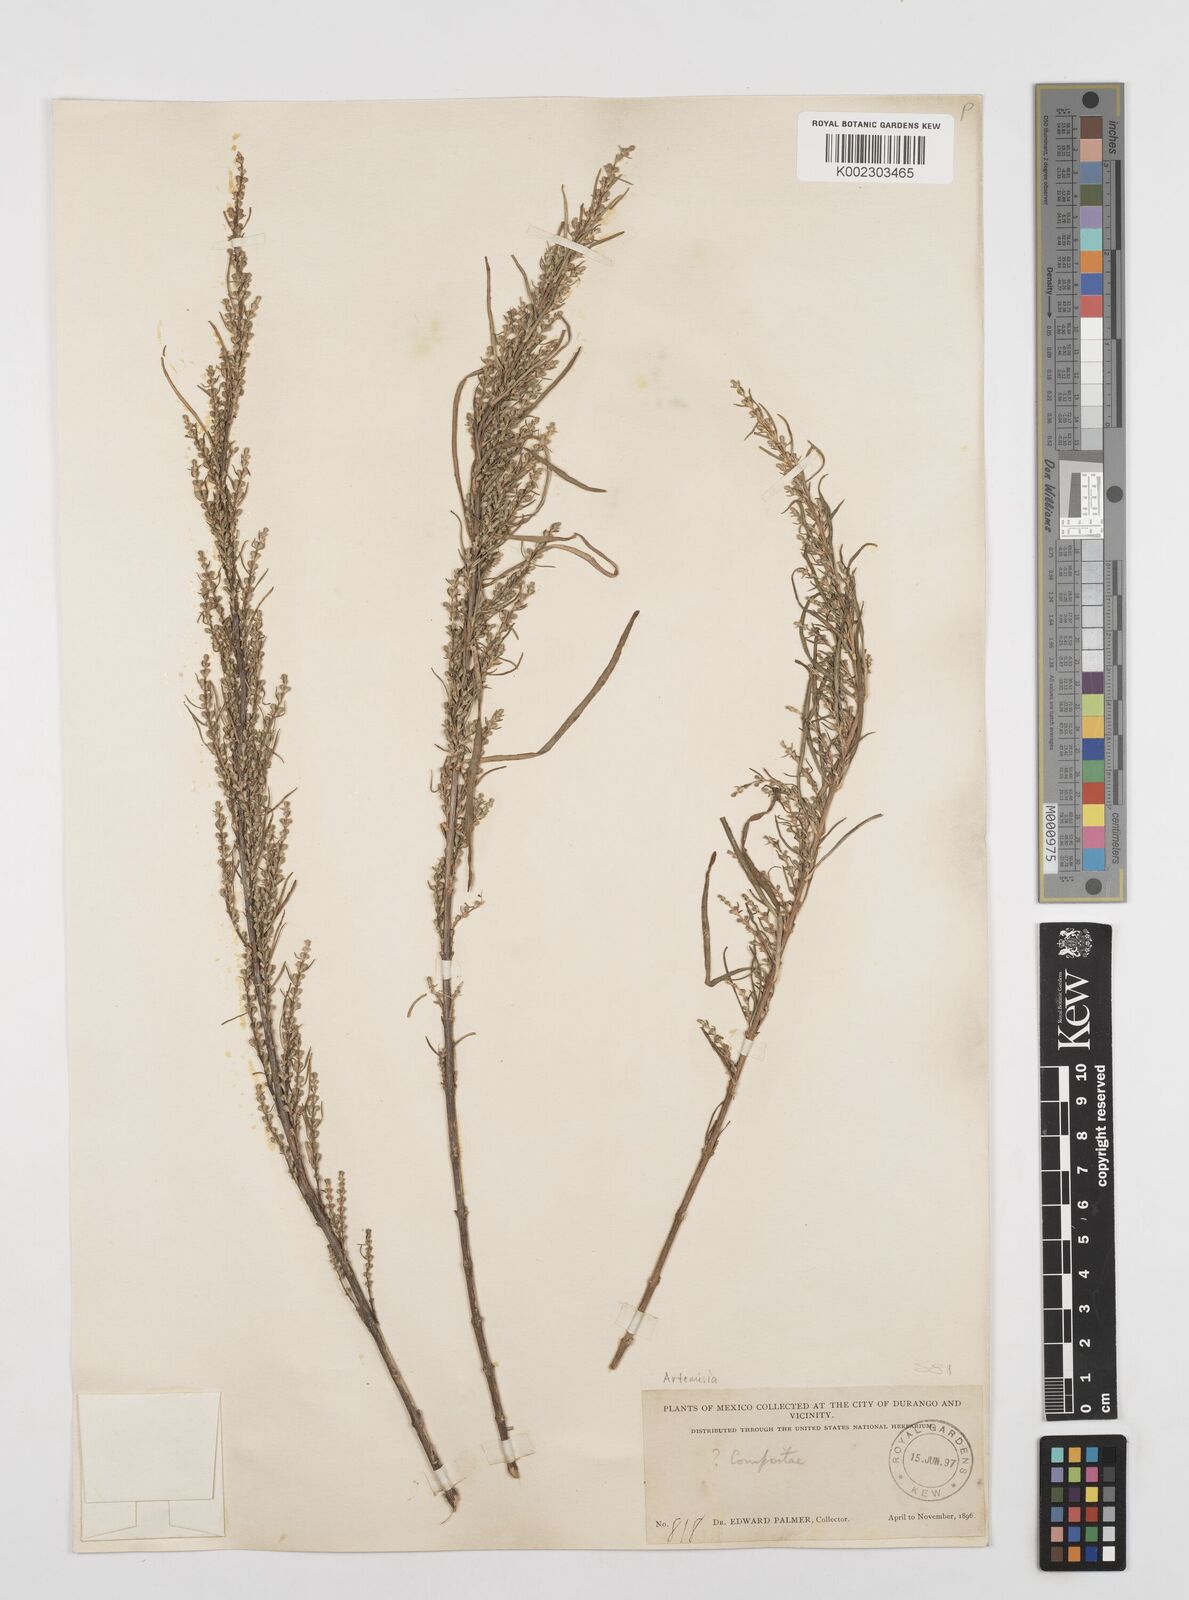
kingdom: Plantae
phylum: Tracheophyta
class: Magnoliopsida
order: Asterales
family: Asteraceae
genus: Artemisia
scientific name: Artemisia
